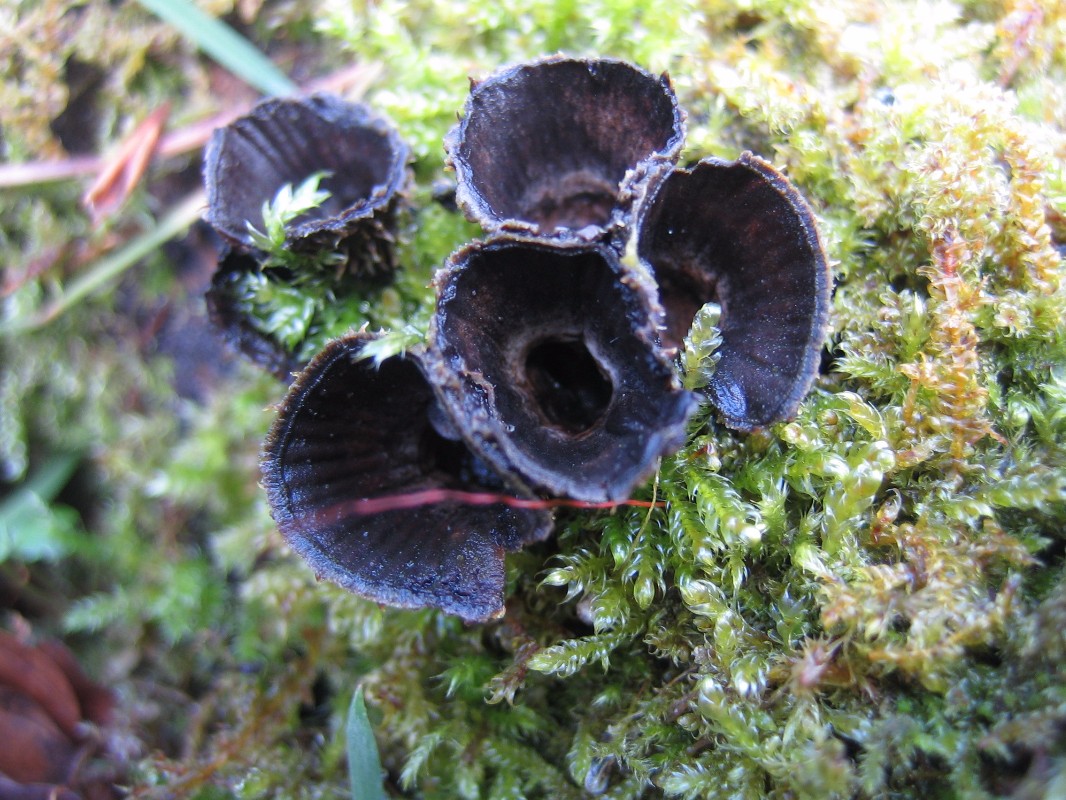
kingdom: Fungi
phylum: Basidiomycota
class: Agaricomycetes
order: Agaricales
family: Agaricaceae
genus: Cyathus
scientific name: Cyathus striatus
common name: stribet redesvamp
